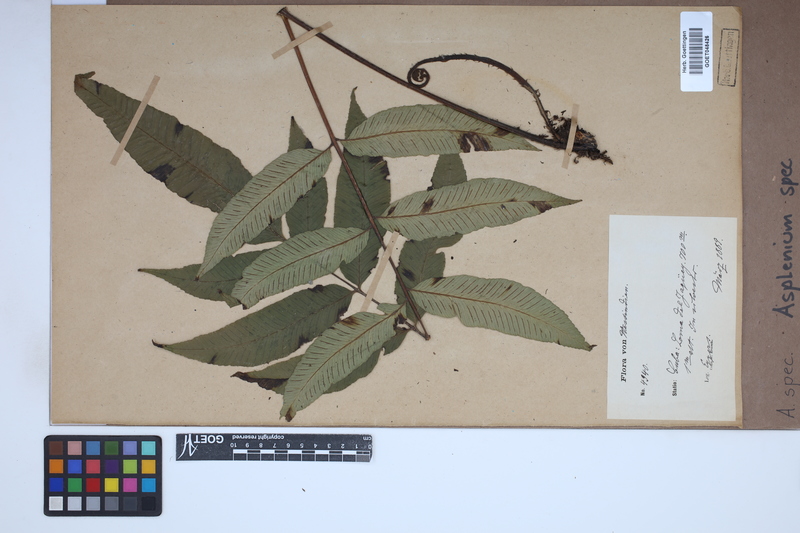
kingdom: Plantae
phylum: Tracheophyta
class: Polypodiopsida
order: Polypodiales
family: Aspleniaceae
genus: Asplenium
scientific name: Asplenium
